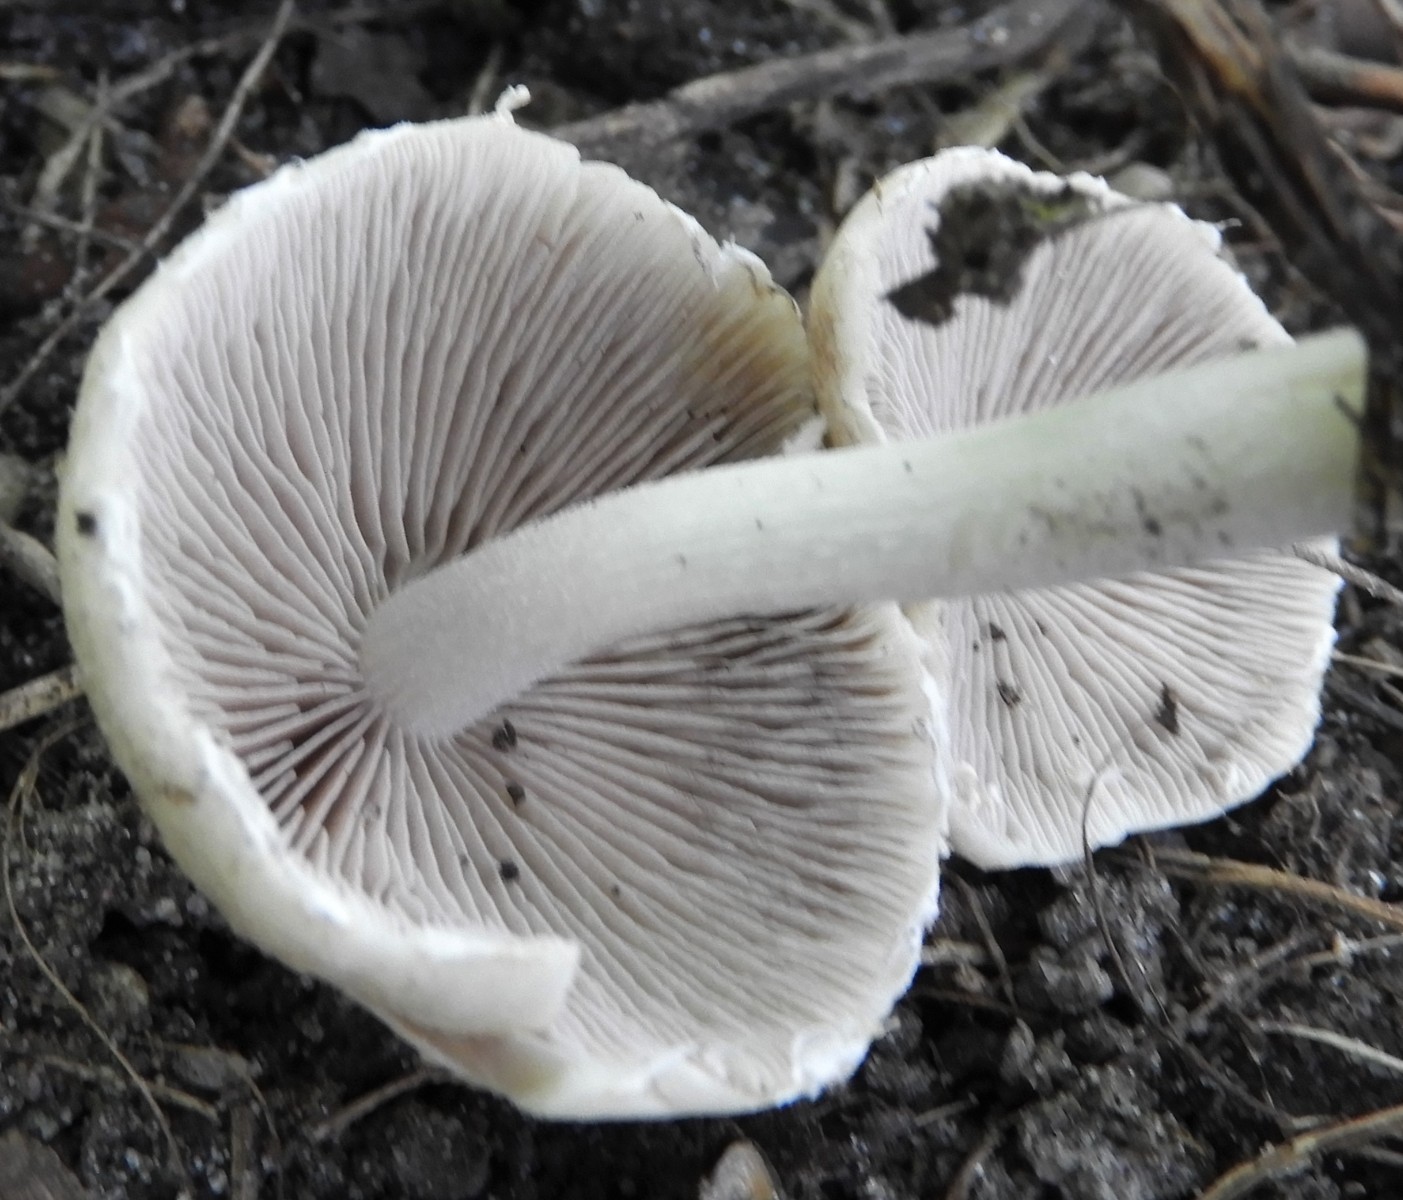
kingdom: Fungi
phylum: Basidiomycota
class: Agaricomycetes
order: Agaricales
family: Psathyrellaceae
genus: Candolleomyces
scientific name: Candolleomyces candolleanus
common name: Candolles mørkhat
